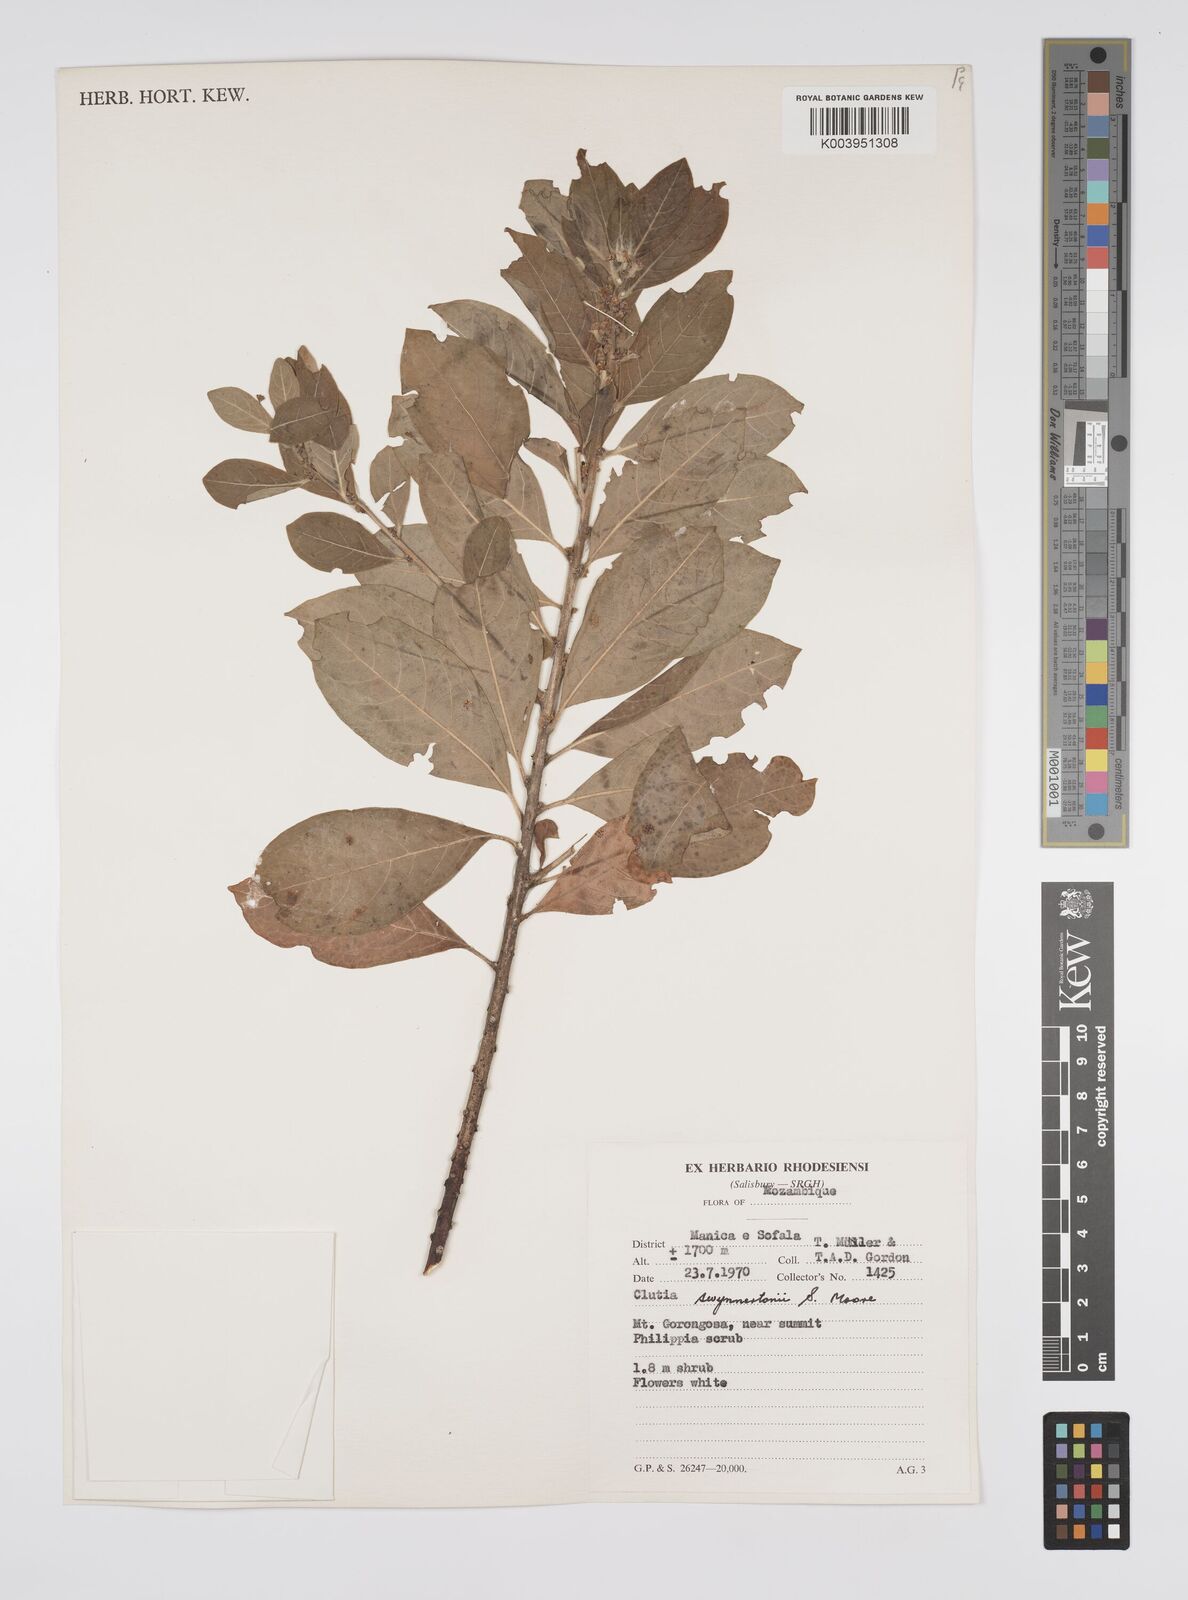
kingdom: Plantae
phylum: Tracheophyta
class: Magnoliopsida
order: Malpighiales
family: Peraceae
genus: Clutia
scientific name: Clutia swynnertonii
